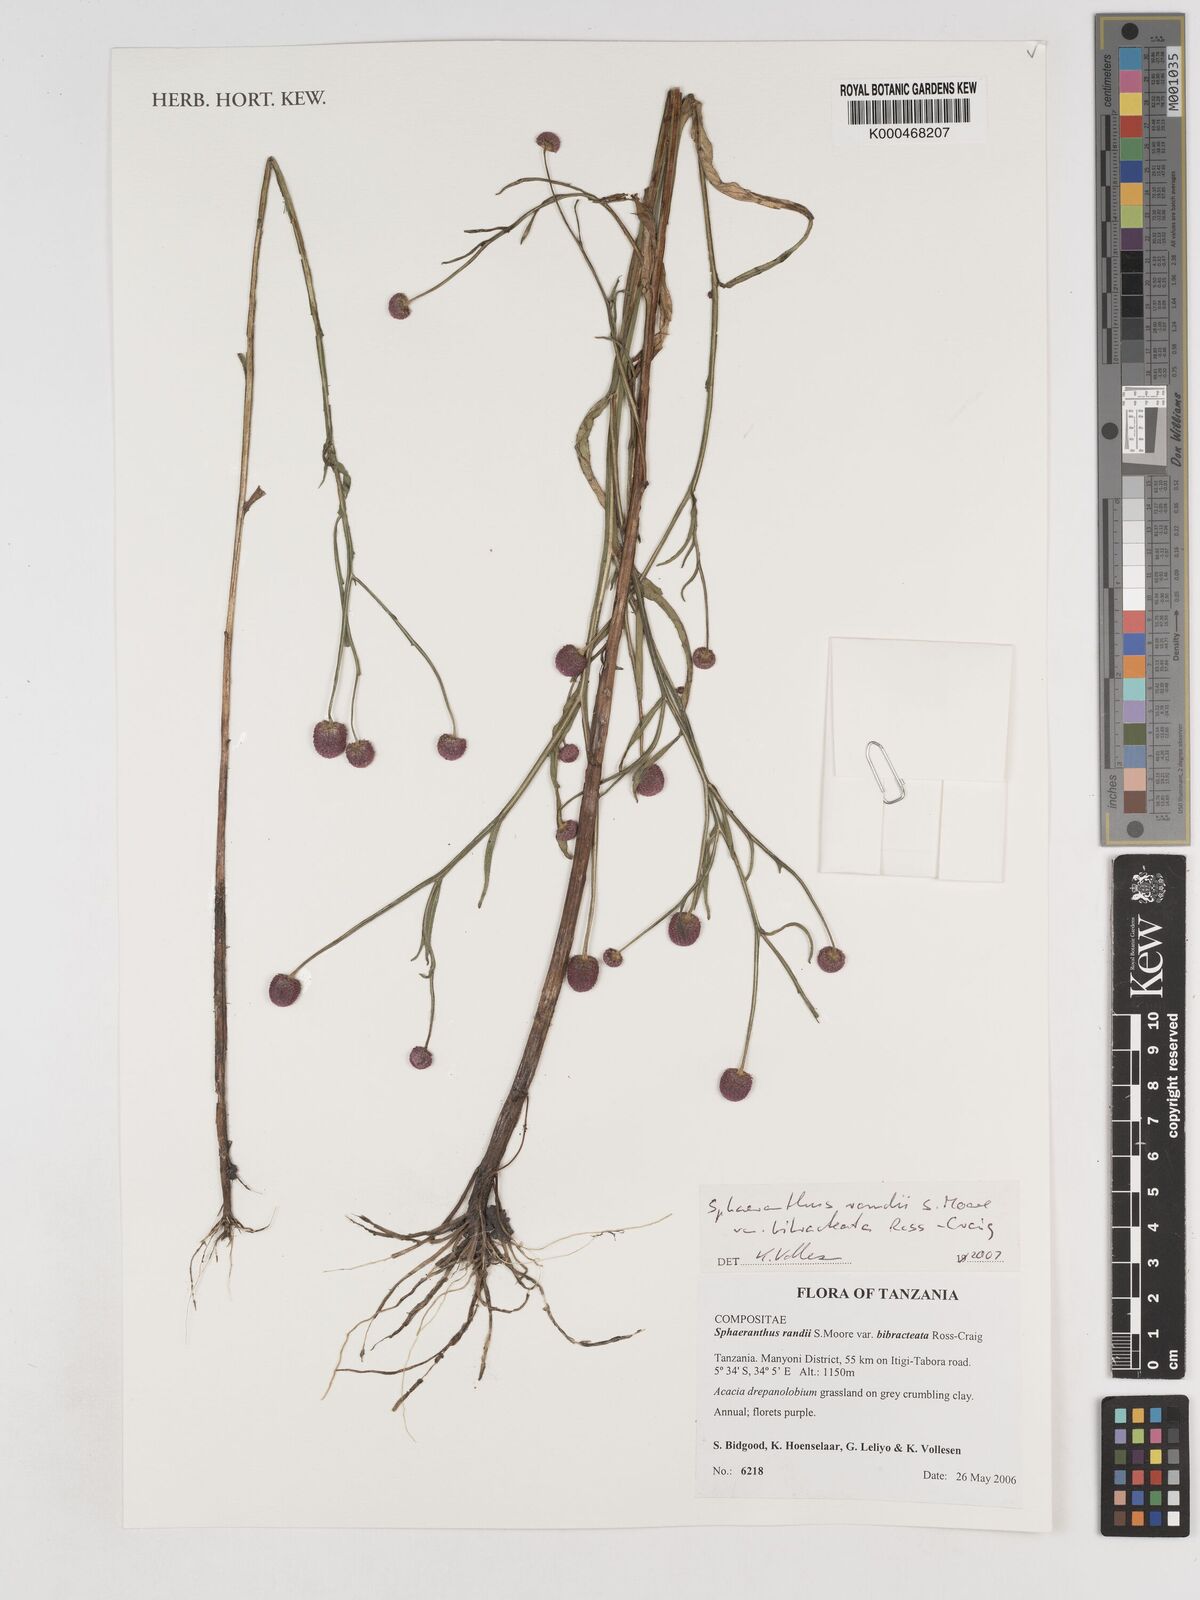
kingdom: Plantae
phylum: Tracheophyta
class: Magnoliopsida
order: Asterales
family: Asteraceae
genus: Sphaeranthus
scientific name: Sphaeranthus randii
